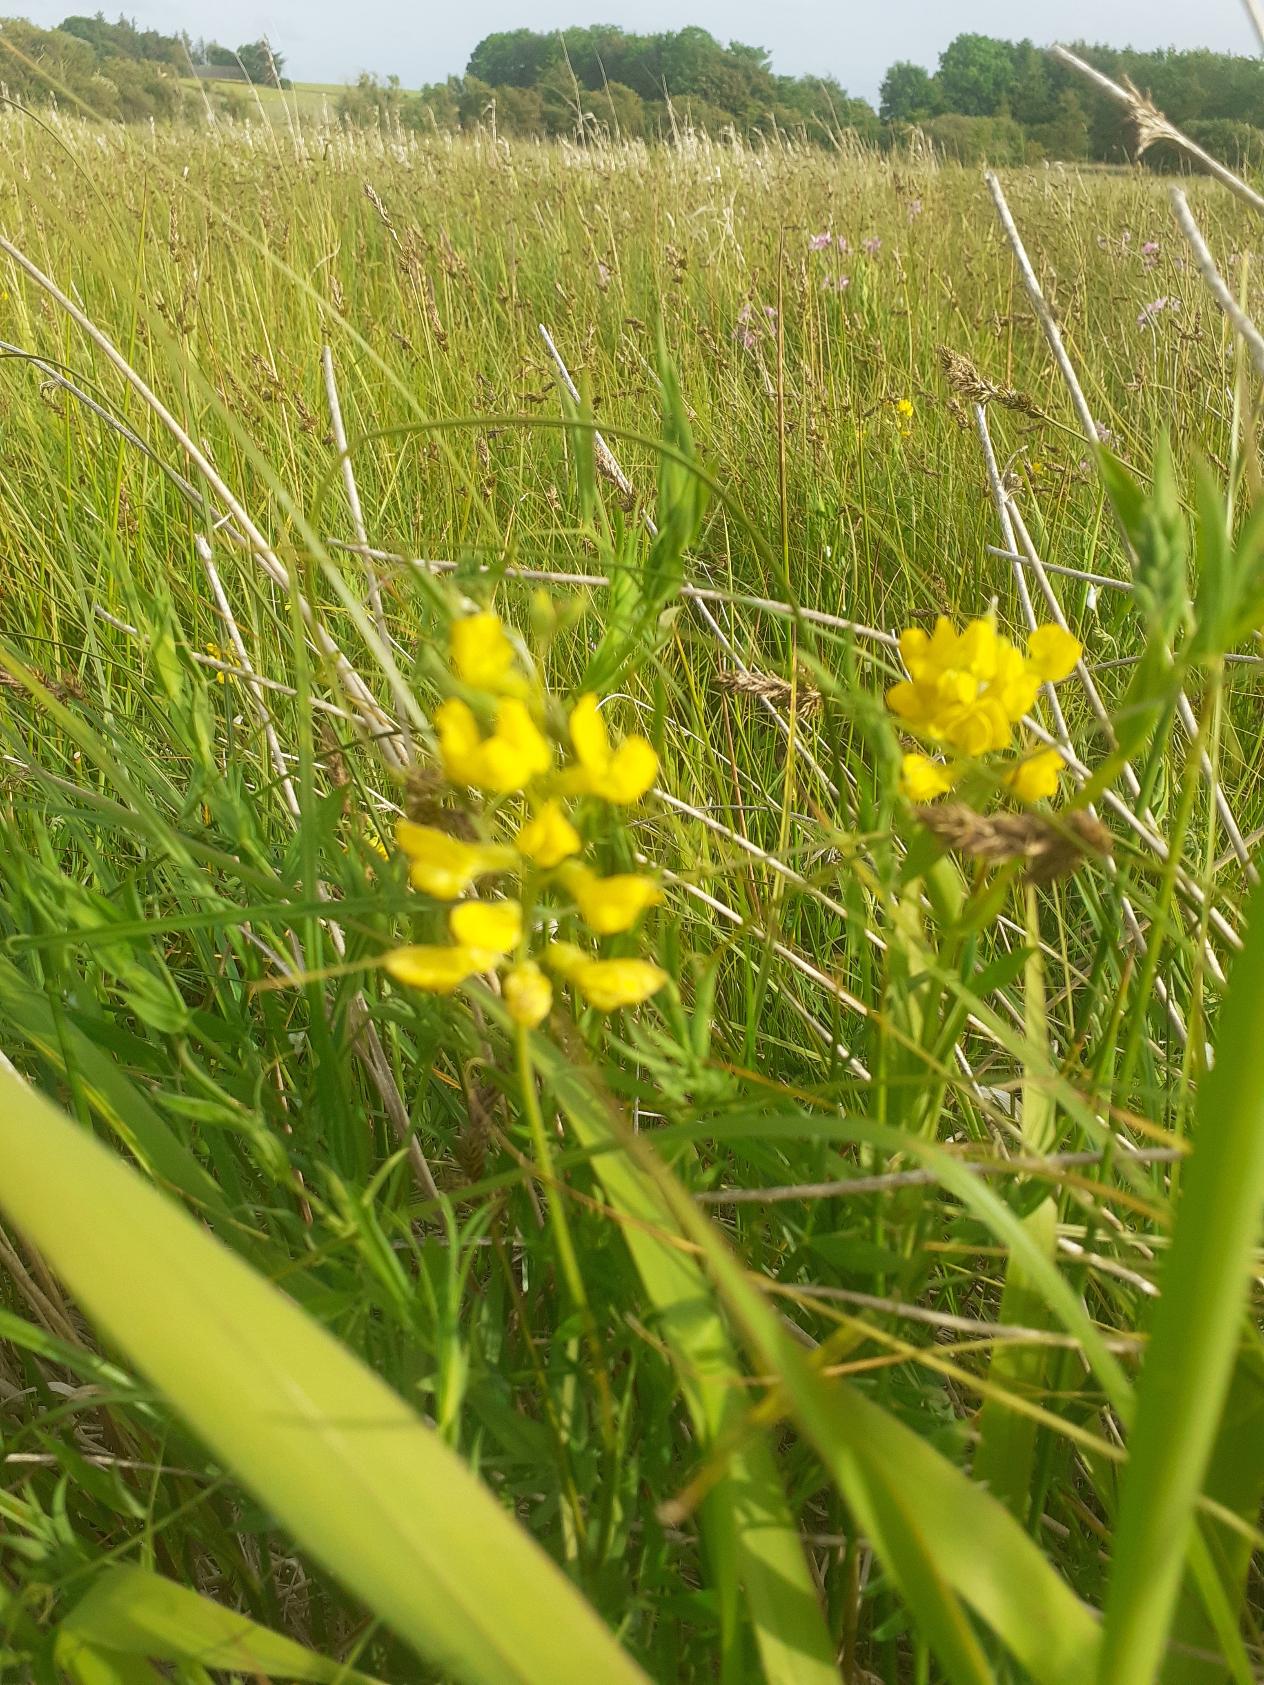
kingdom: Plantae
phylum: Tracheophyta
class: Magnoliopsida
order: Fabales
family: Fabaceae
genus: Lathyrus
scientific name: Lathyrus pratensis
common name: Gul fladbælg
